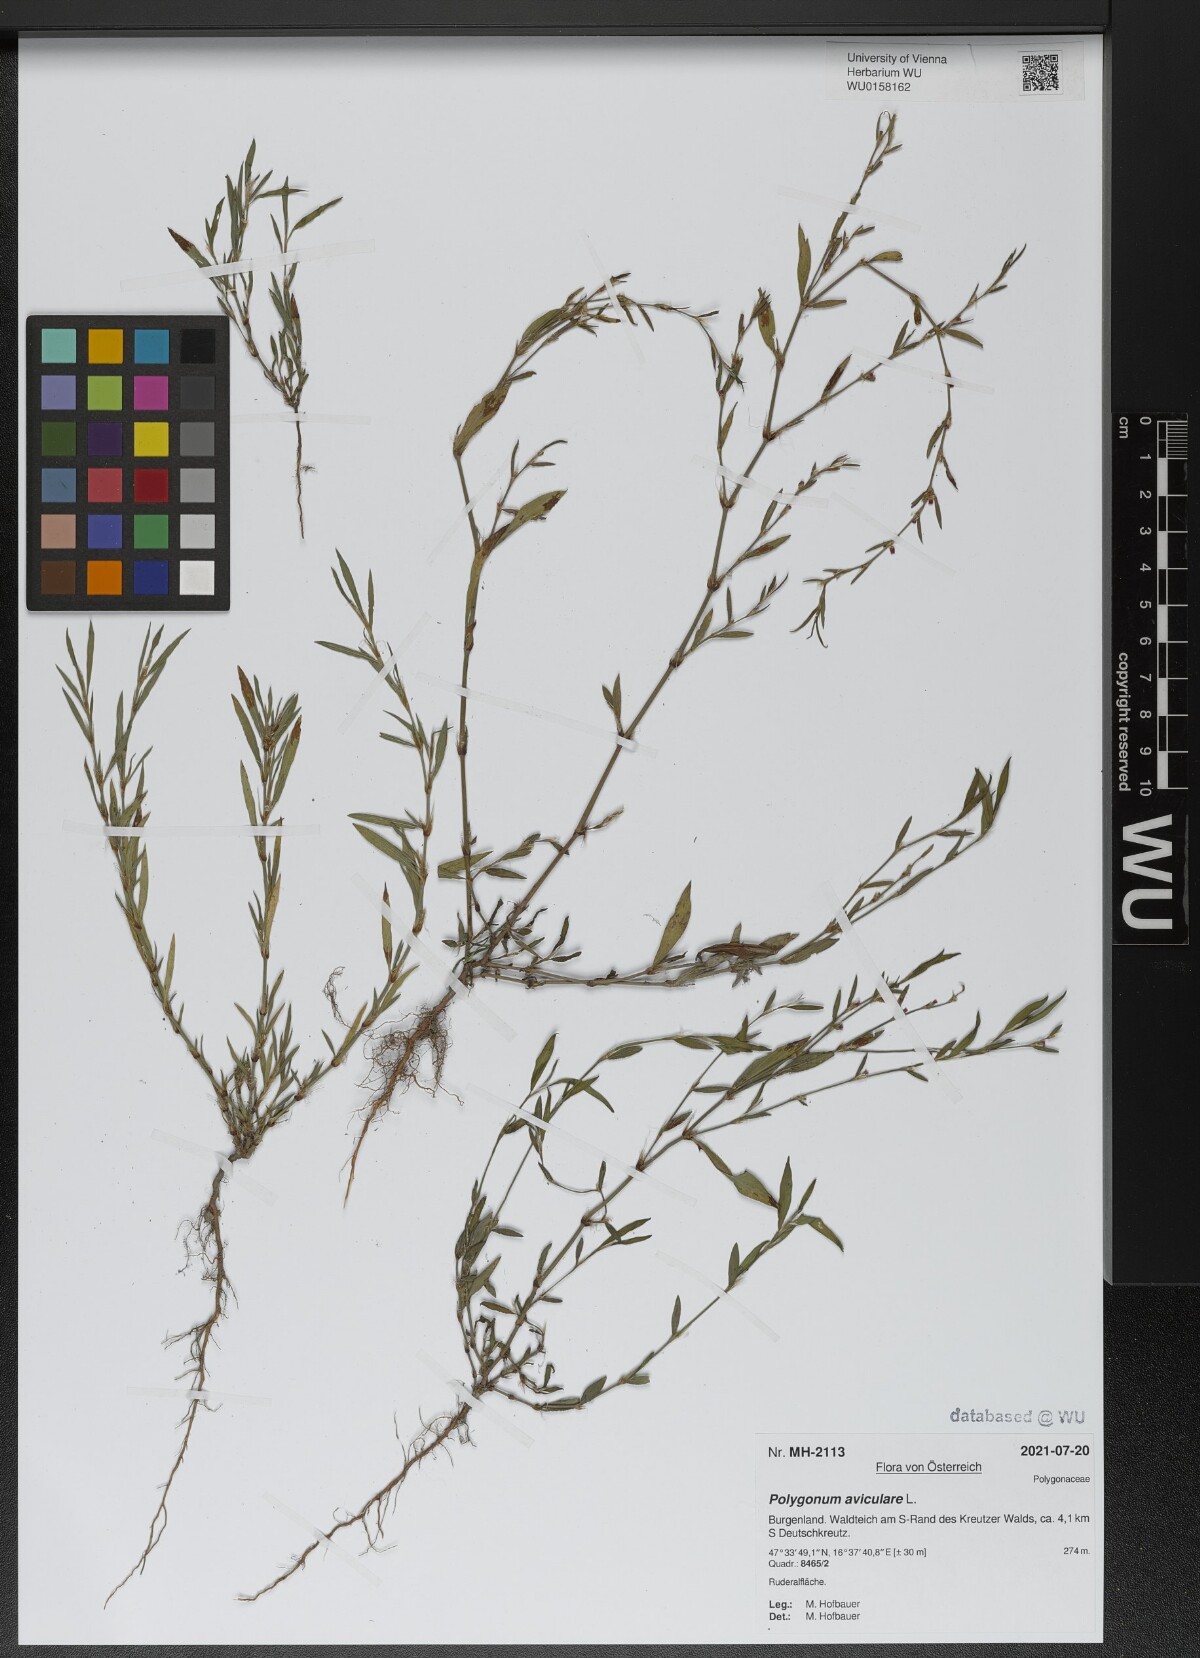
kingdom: Plantae
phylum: Tracheophyta
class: Magnoliopsida
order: Caryophyllales
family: Polygonaceae
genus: Polygonum
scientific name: Polygonum aviculare
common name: Prostrate knotweed
